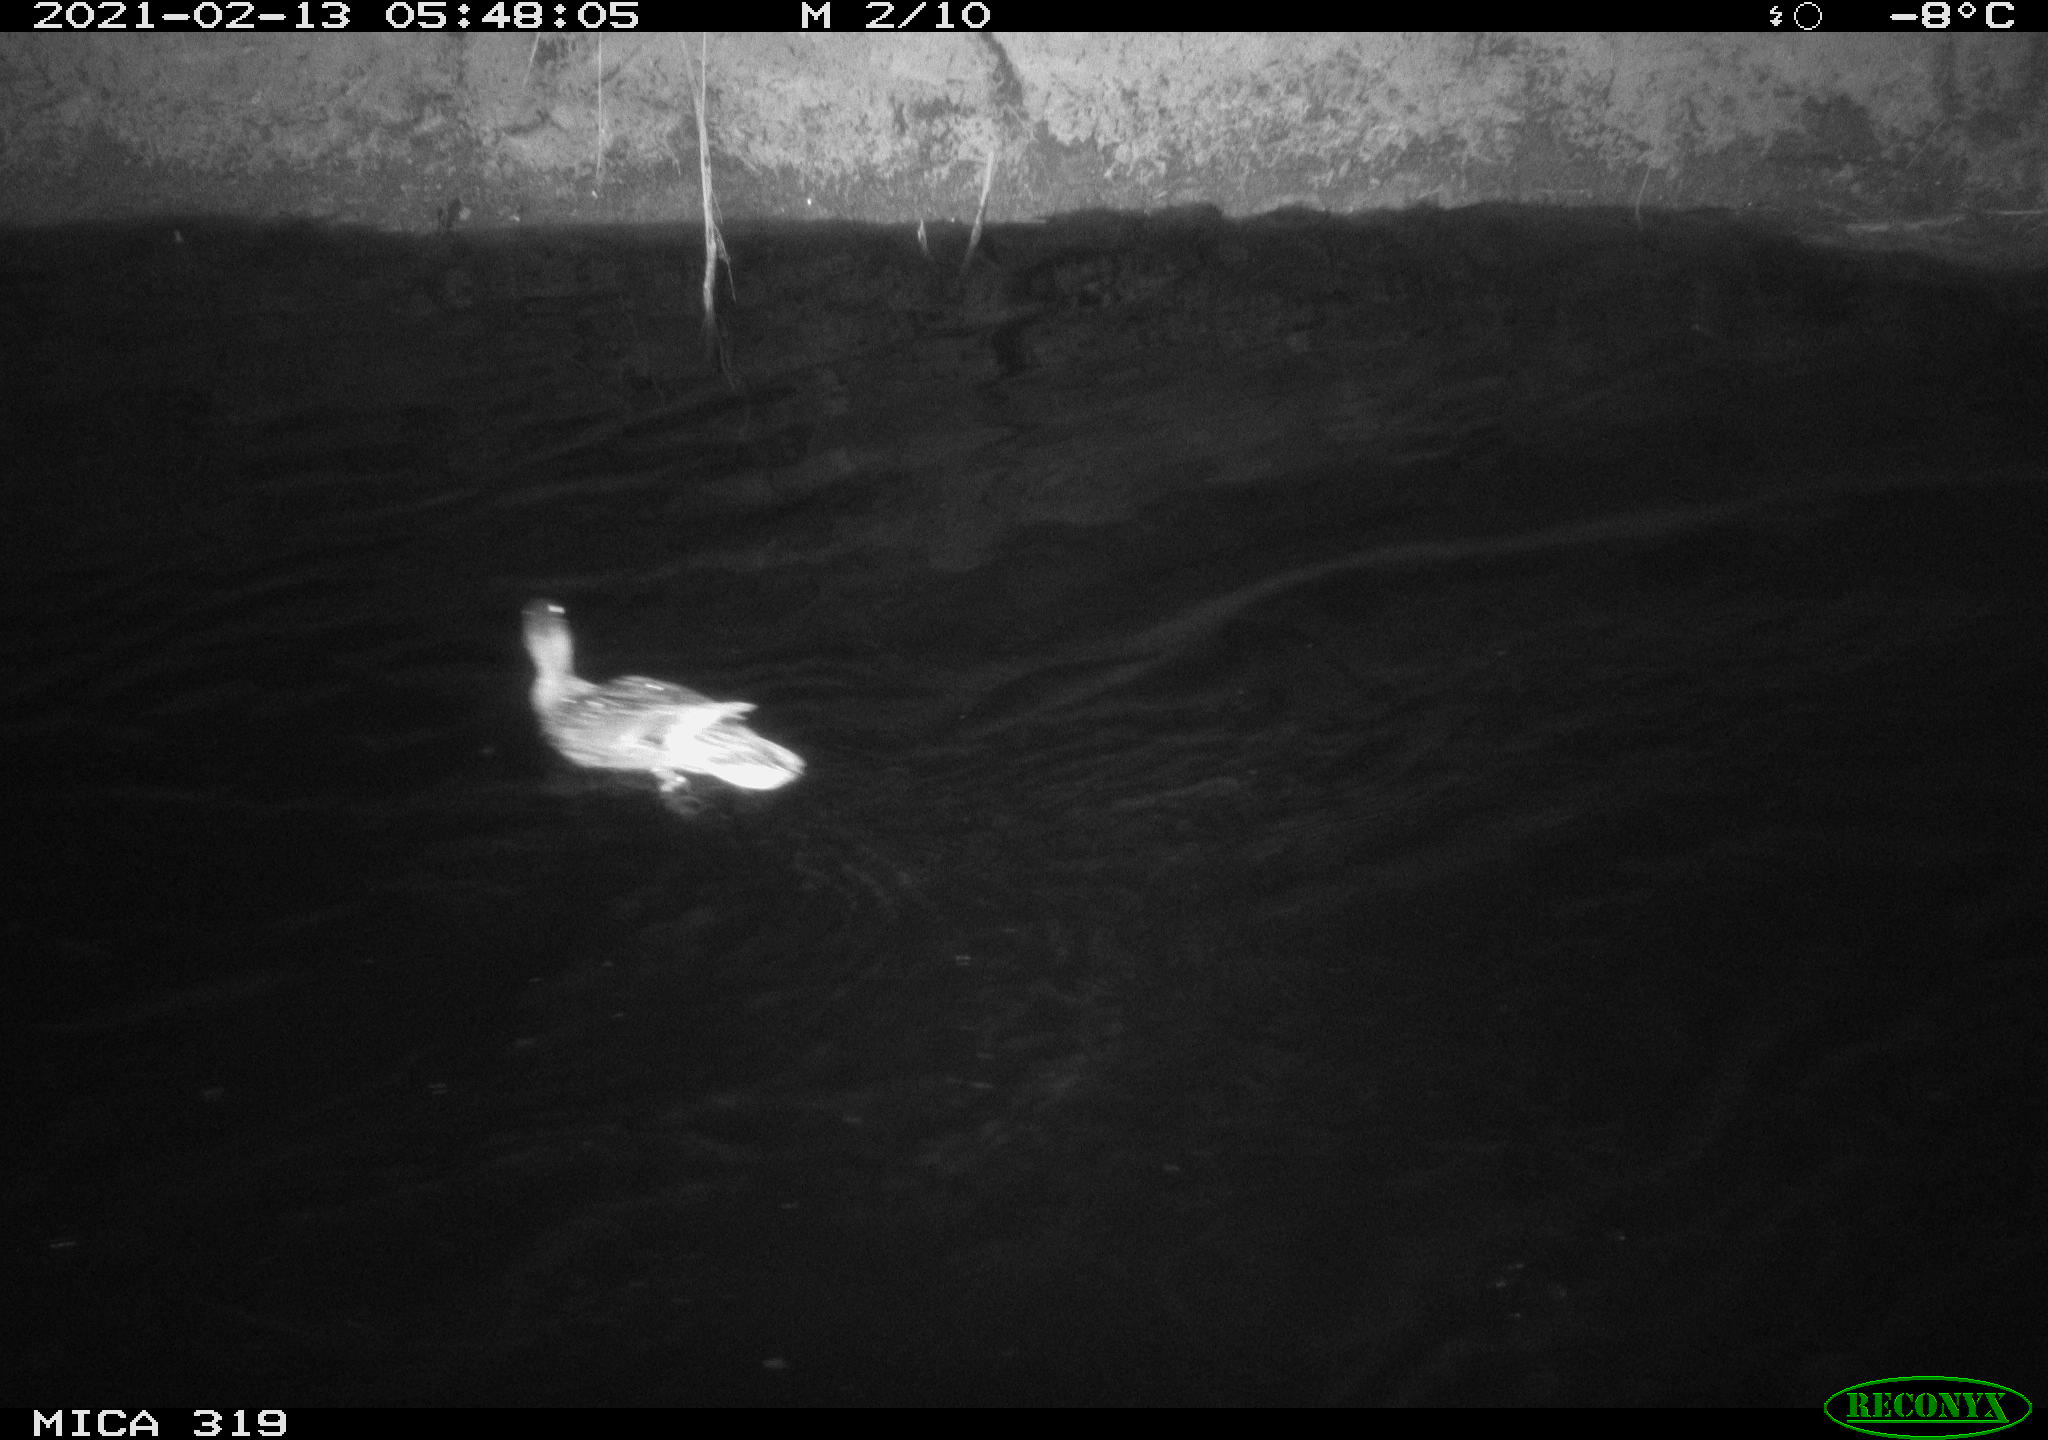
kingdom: Animalia
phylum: Chordata
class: Aves
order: Anseriformes
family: Anatidae
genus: Anas
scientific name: Anas platyrhynchos
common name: Mallard
